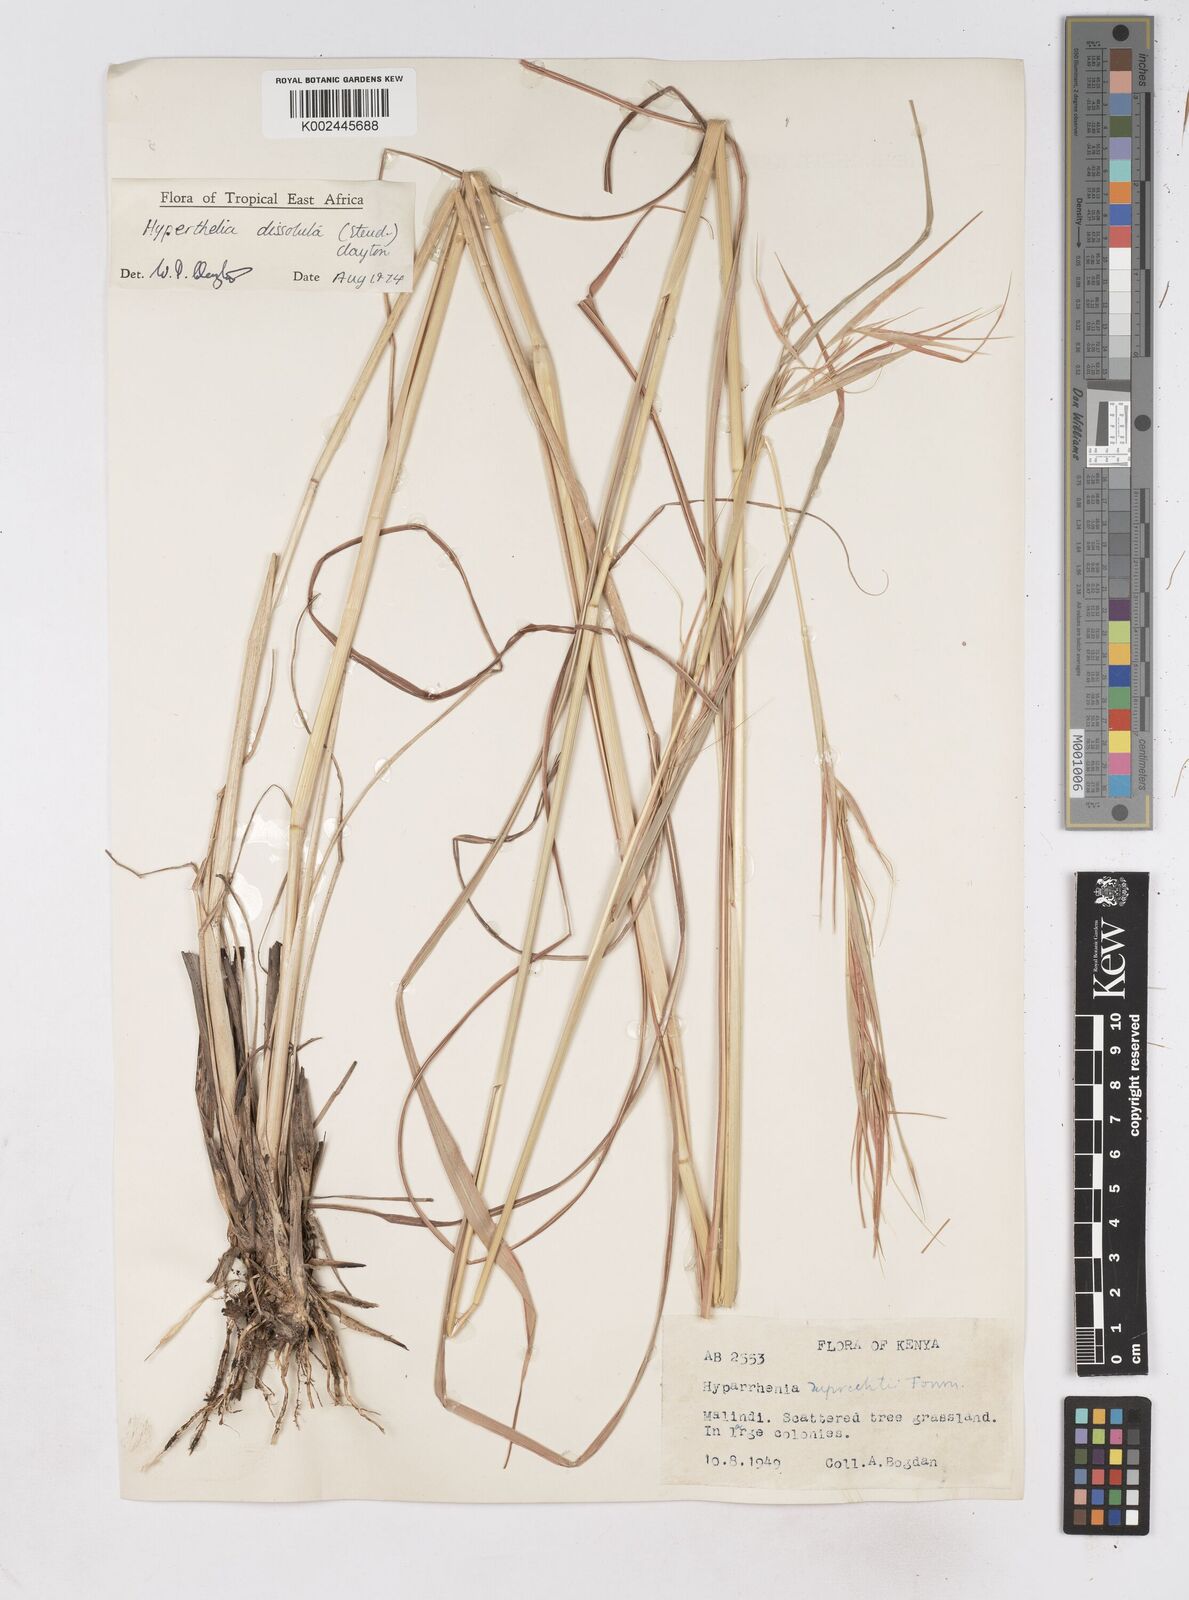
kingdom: Plantae
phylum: Tracheophyta
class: Liliopsida
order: Poales
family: Poaceae
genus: Hyperthelia
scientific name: Hyperthelia dissoluta
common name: Yellow thatching grass
